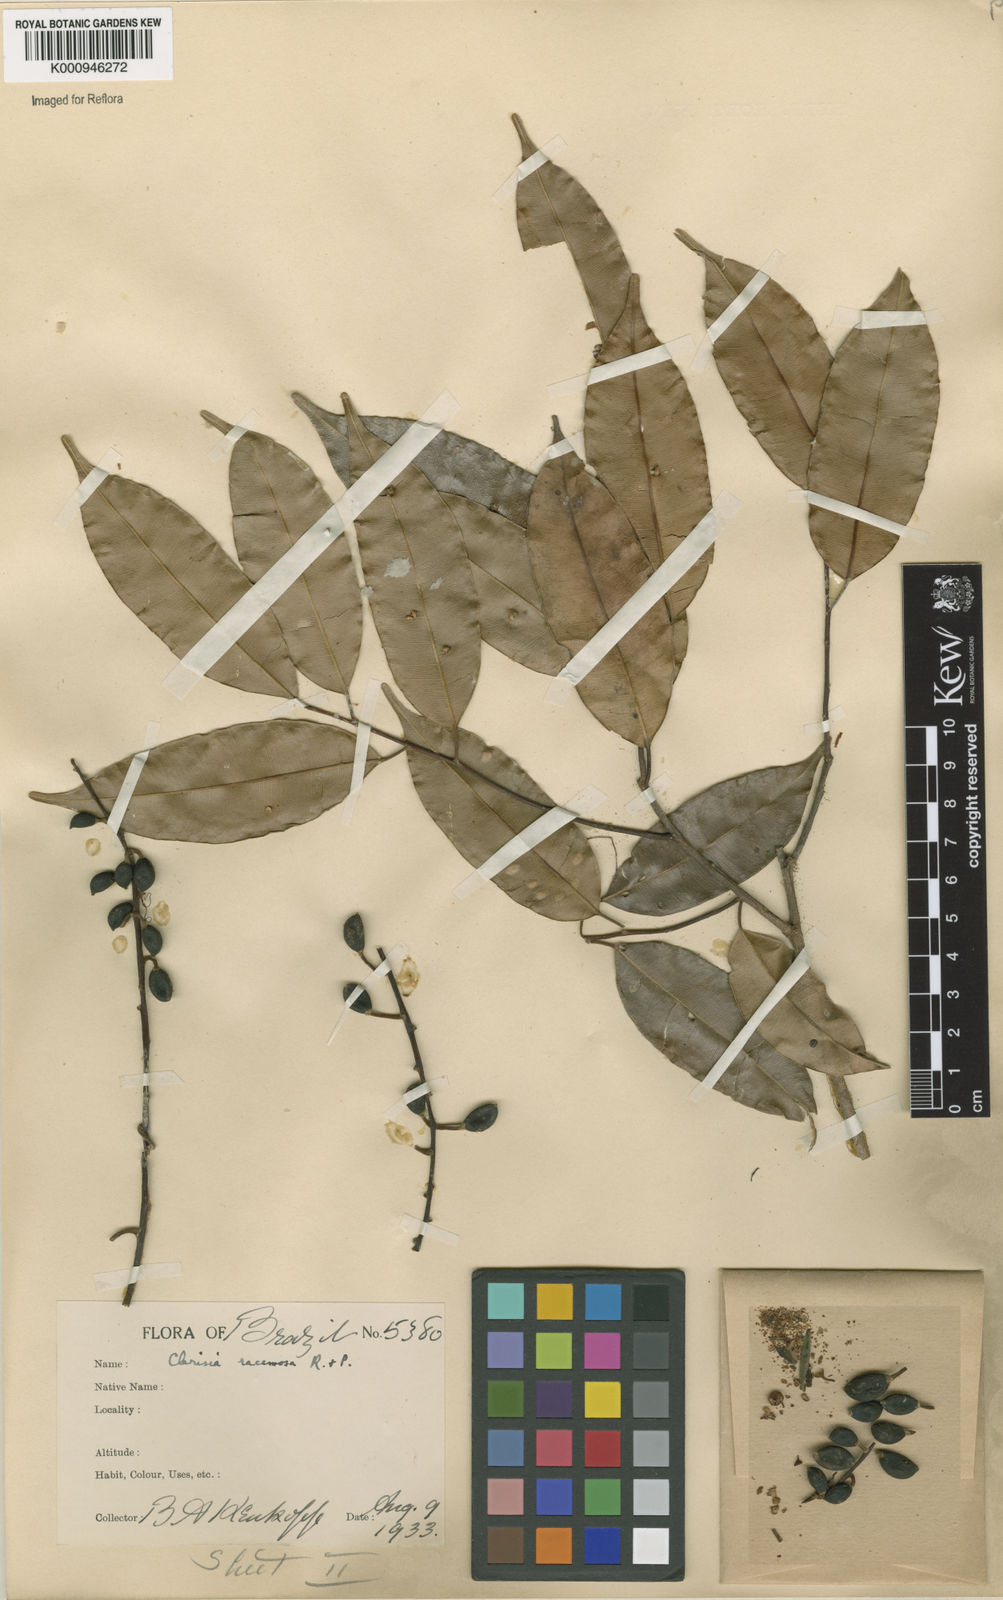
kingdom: Plantae
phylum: Tracheophyta
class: Magnoliopsida
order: Rosales
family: Moraceae
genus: Clarisia
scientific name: Clarisia racemosa
